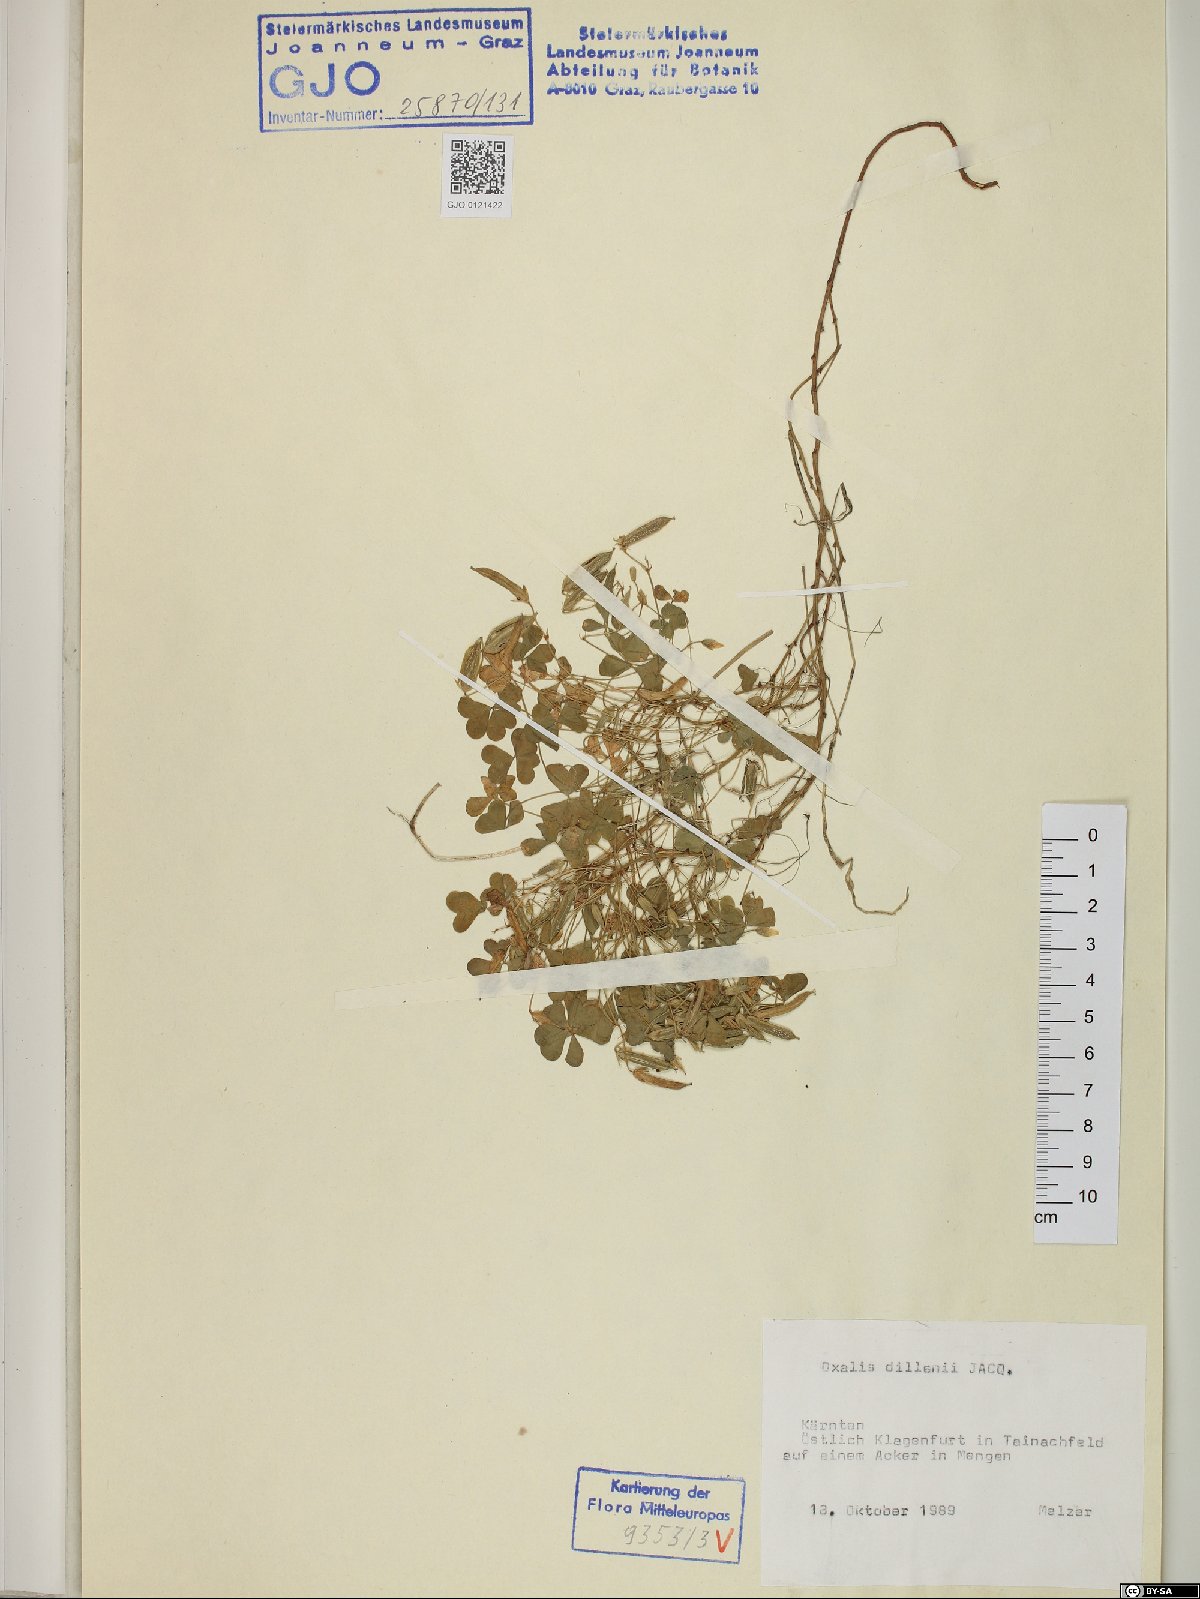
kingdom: Plantae
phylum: Tracheophyta
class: Magnoliopsida
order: Oxalidales
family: Oxalidaceae
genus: Oxalis
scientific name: Oxalis dillenii
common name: Sussex yellow-sorrel
